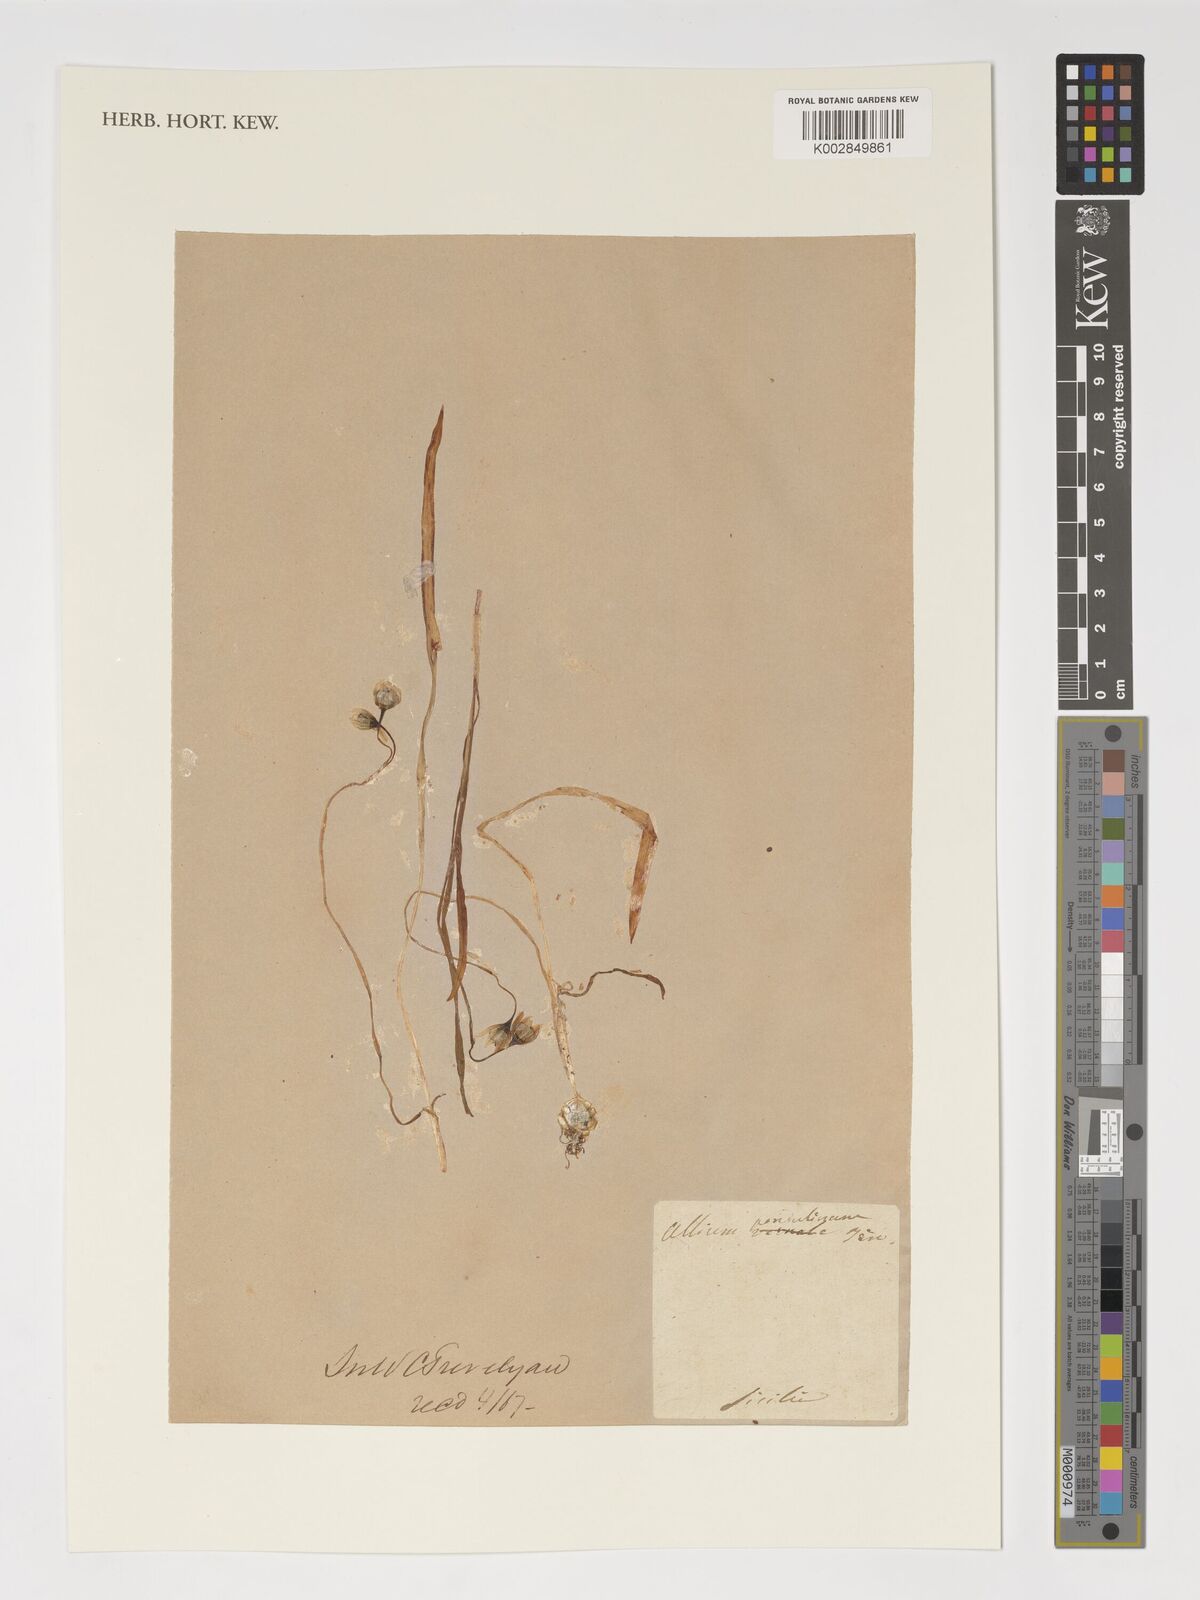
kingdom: Plantae
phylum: Tracheophyta
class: Liliopsida
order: Asparagales
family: Amaryllidaceae
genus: Allium
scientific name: Allium pendulinum
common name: Italian garlic
